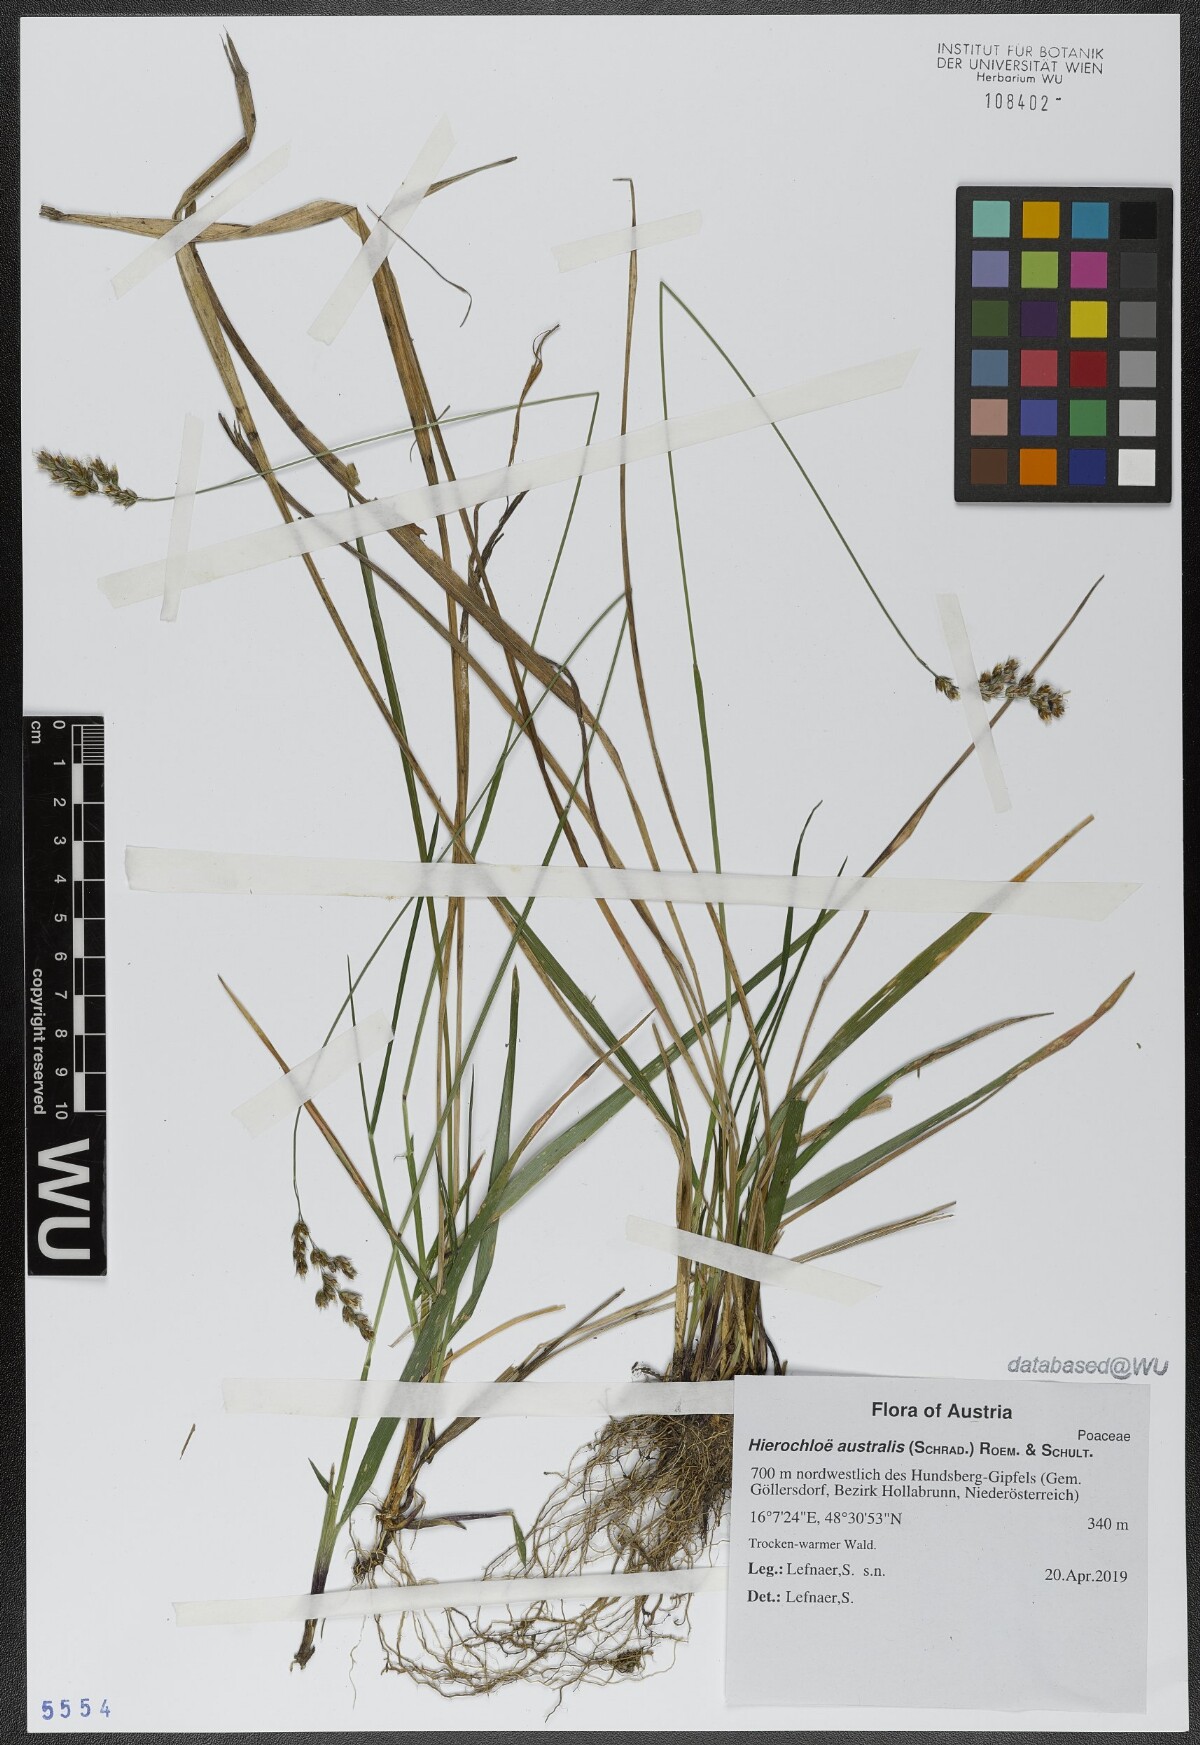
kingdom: Plantae
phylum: Tracheophyta
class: Liliopsida
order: Poales
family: Poaceae
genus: Anthoxanthum
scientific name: Anthoxanthum australe
